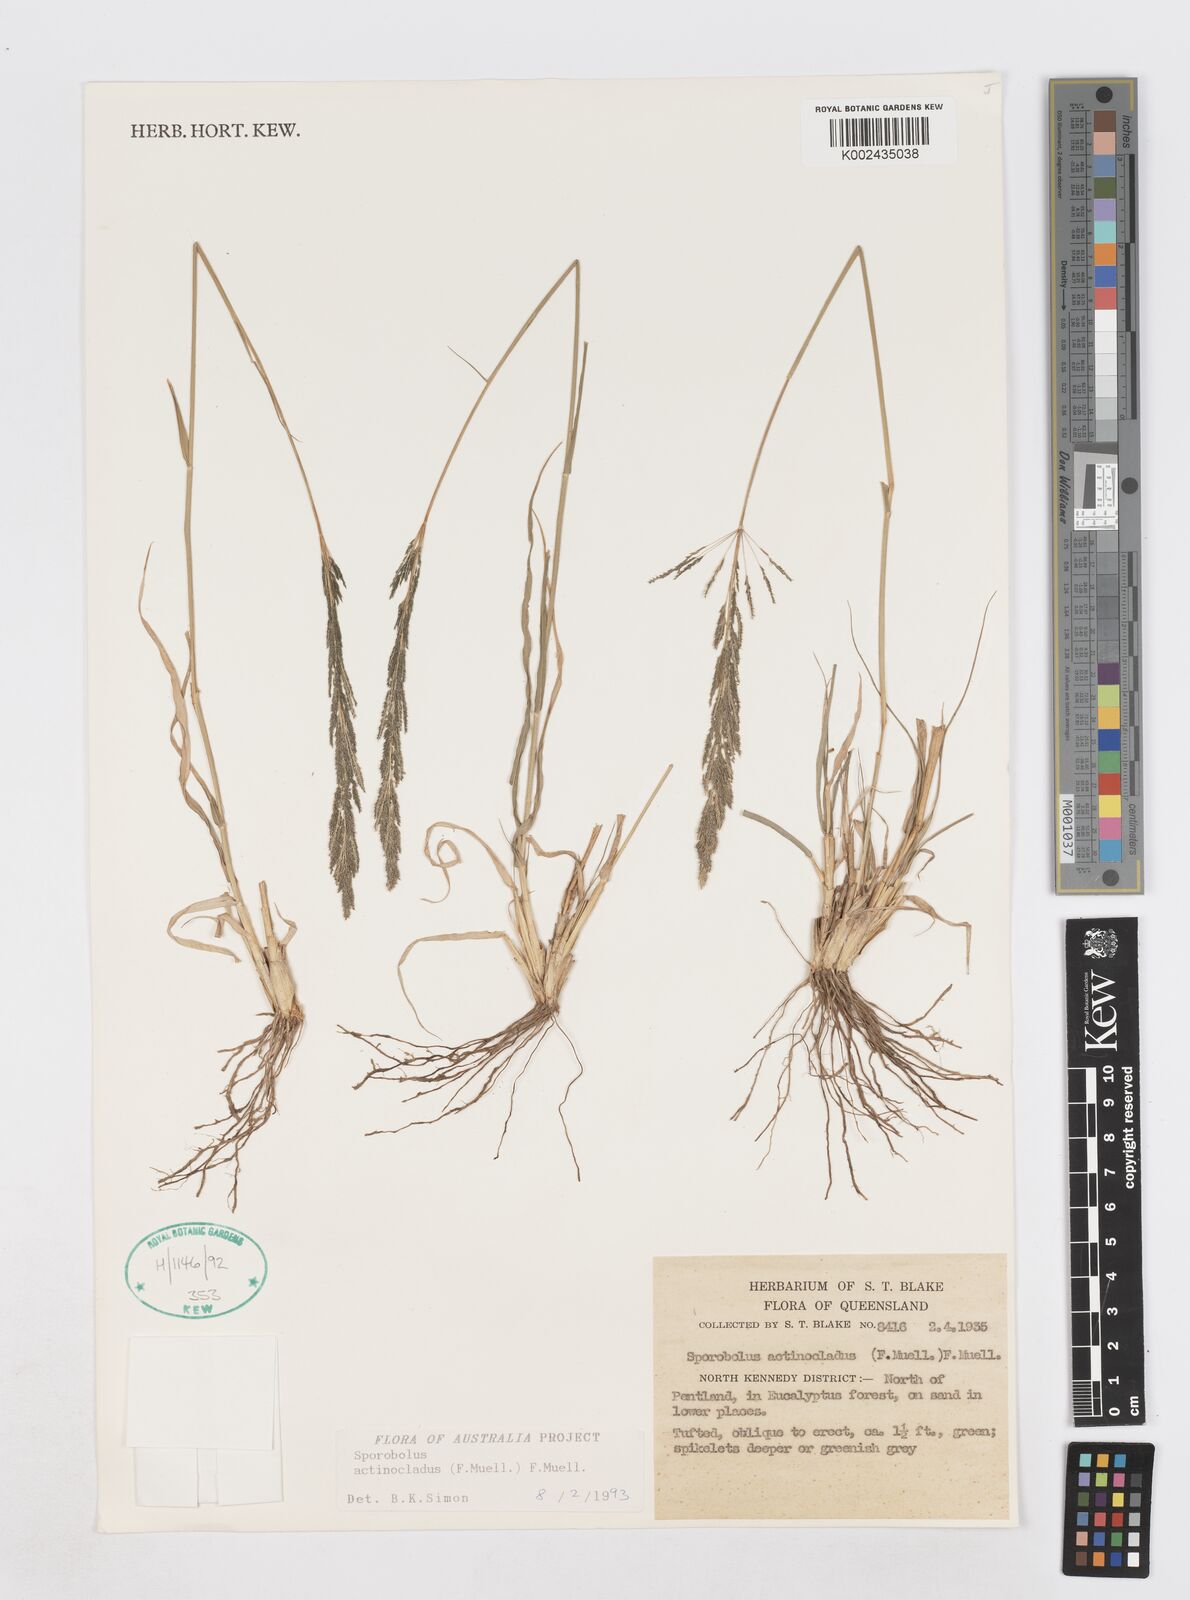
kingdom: Plantae
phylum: Tracheophyta
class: Liliopsida
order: Poales
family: Poaceae
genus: Sporobolus
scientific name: Sporobolus actinocladus
